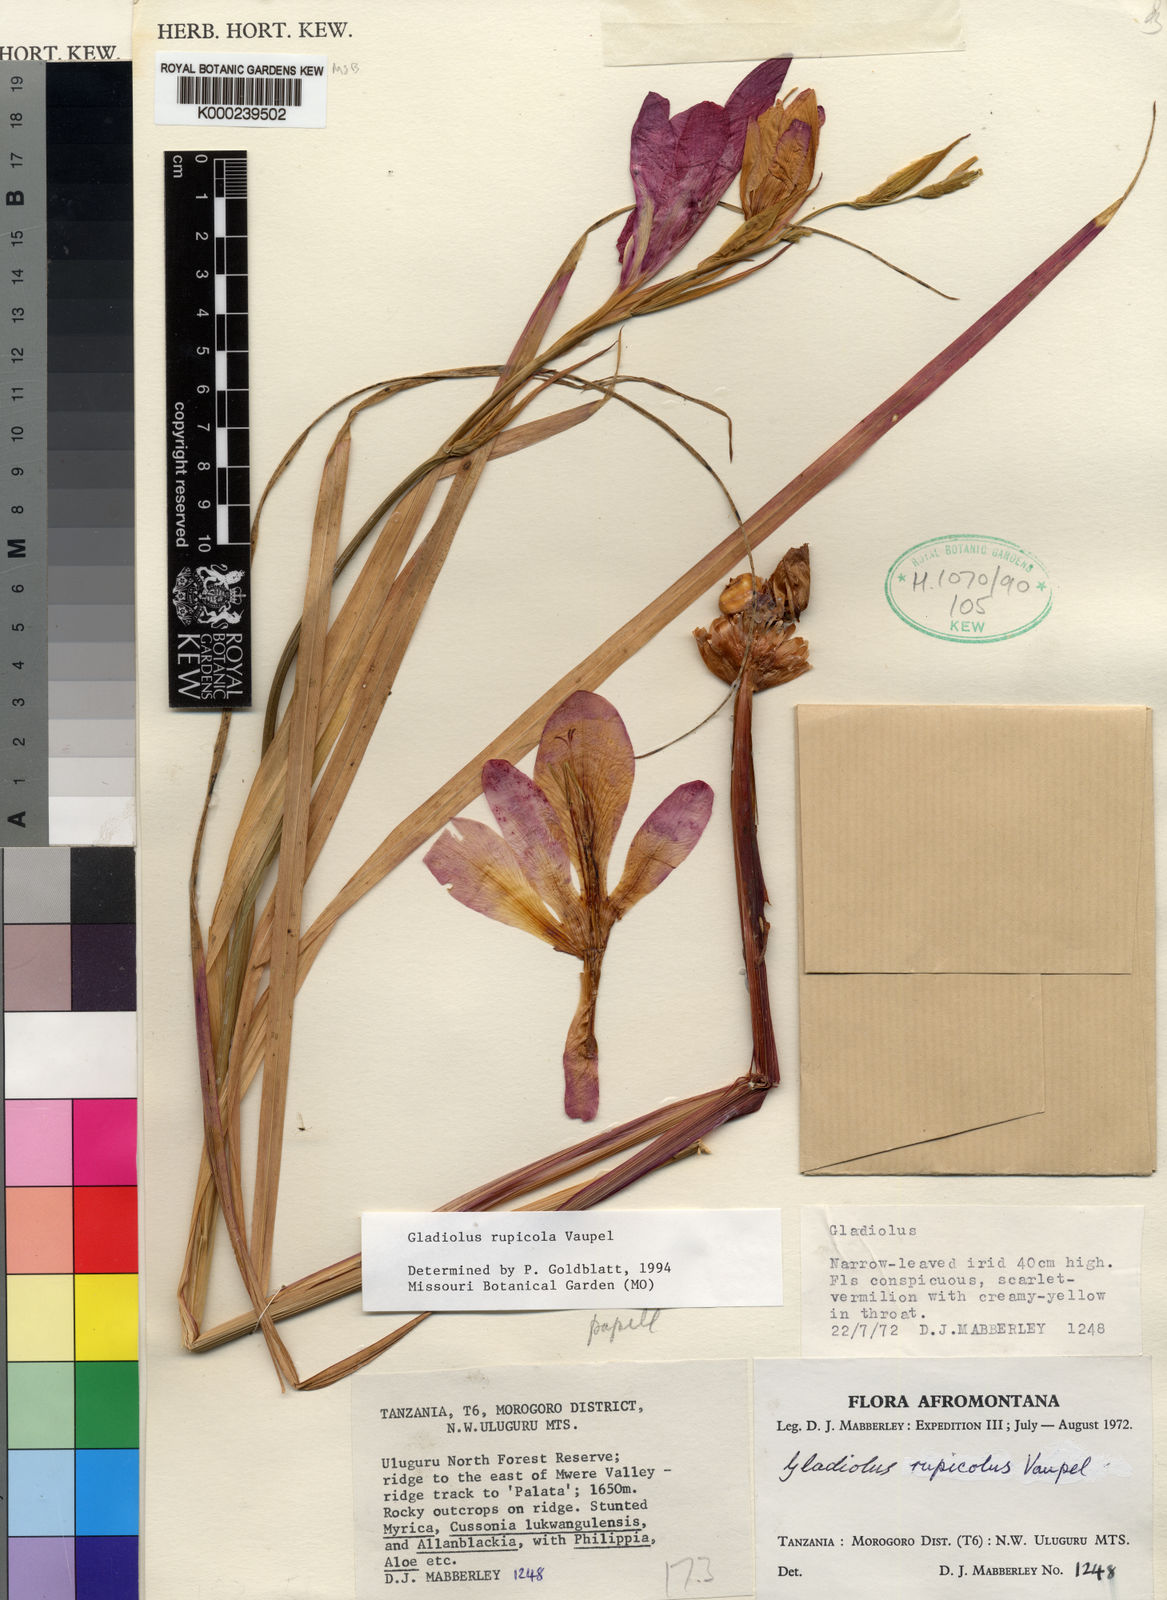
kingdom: Plantae
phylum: Tracheophyta
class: Liliopsida
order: Asparagales
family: Iridaceae
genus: Gladiolus
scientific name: Gladiolus rupicola
